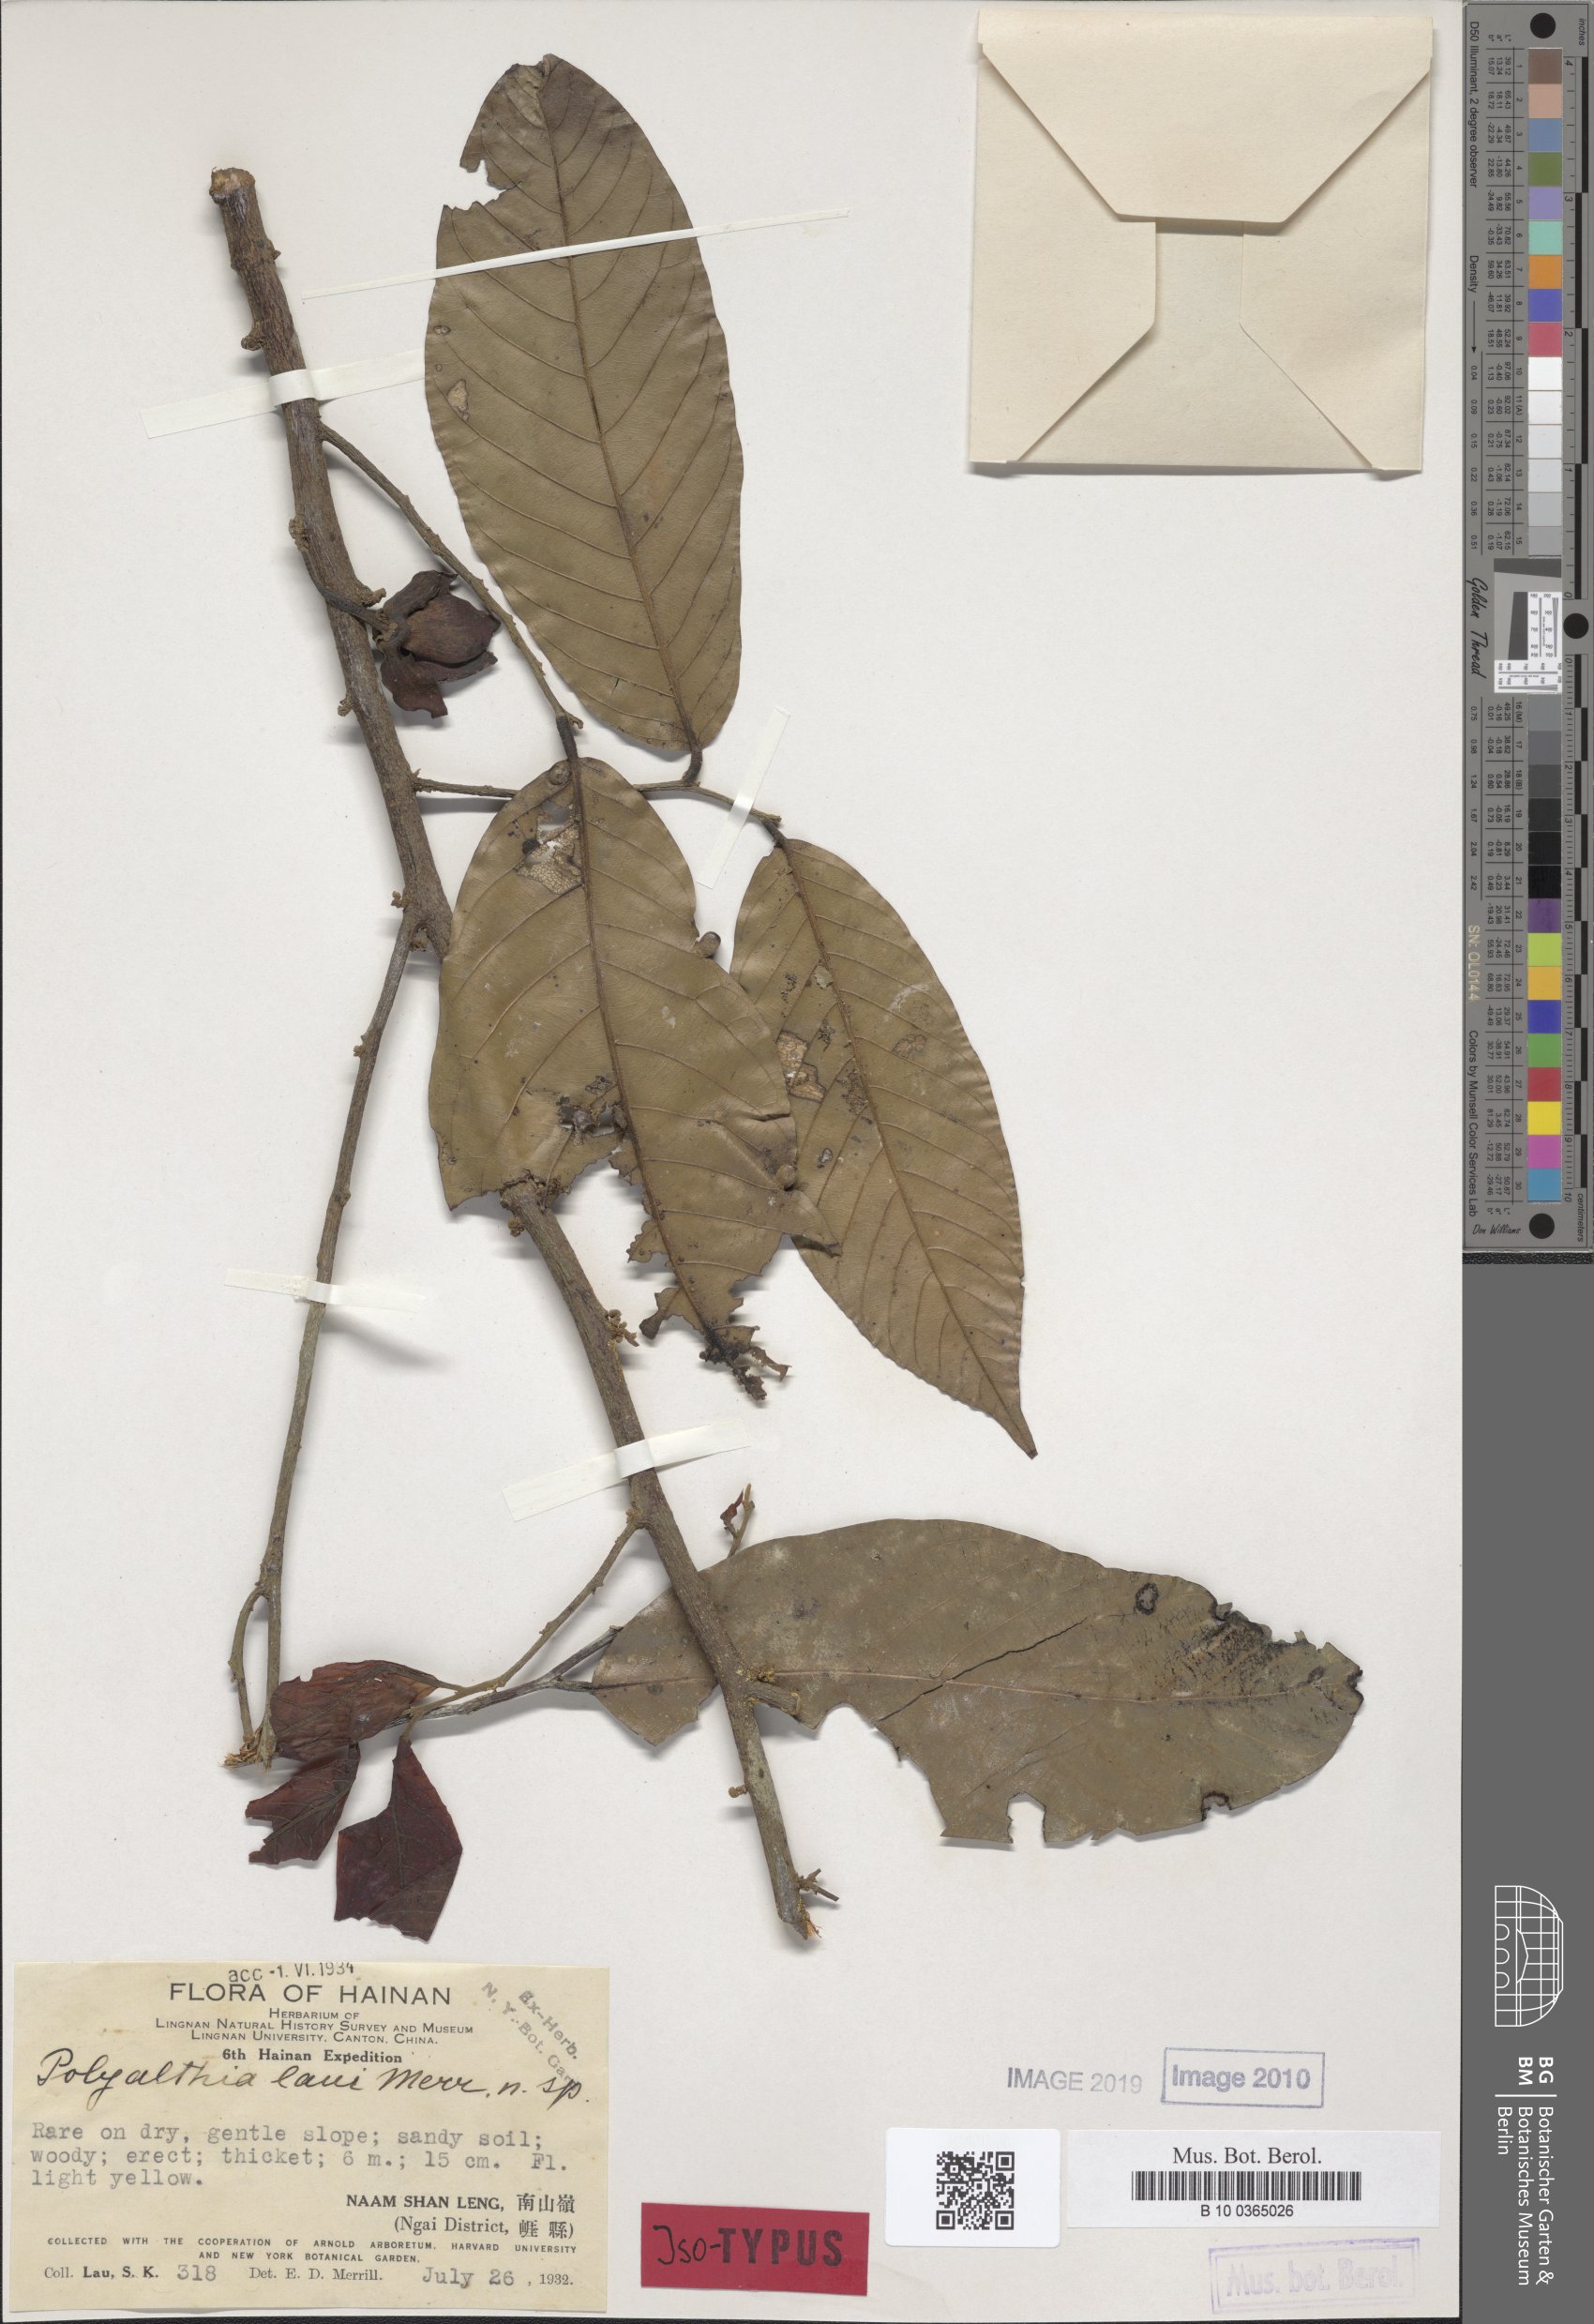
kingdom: Plantae
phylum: Tracheophyta
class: Magnoliopsida
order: Magnoliales
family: Annonaceae
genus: Polyalthia
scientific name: Polyalthia laui
